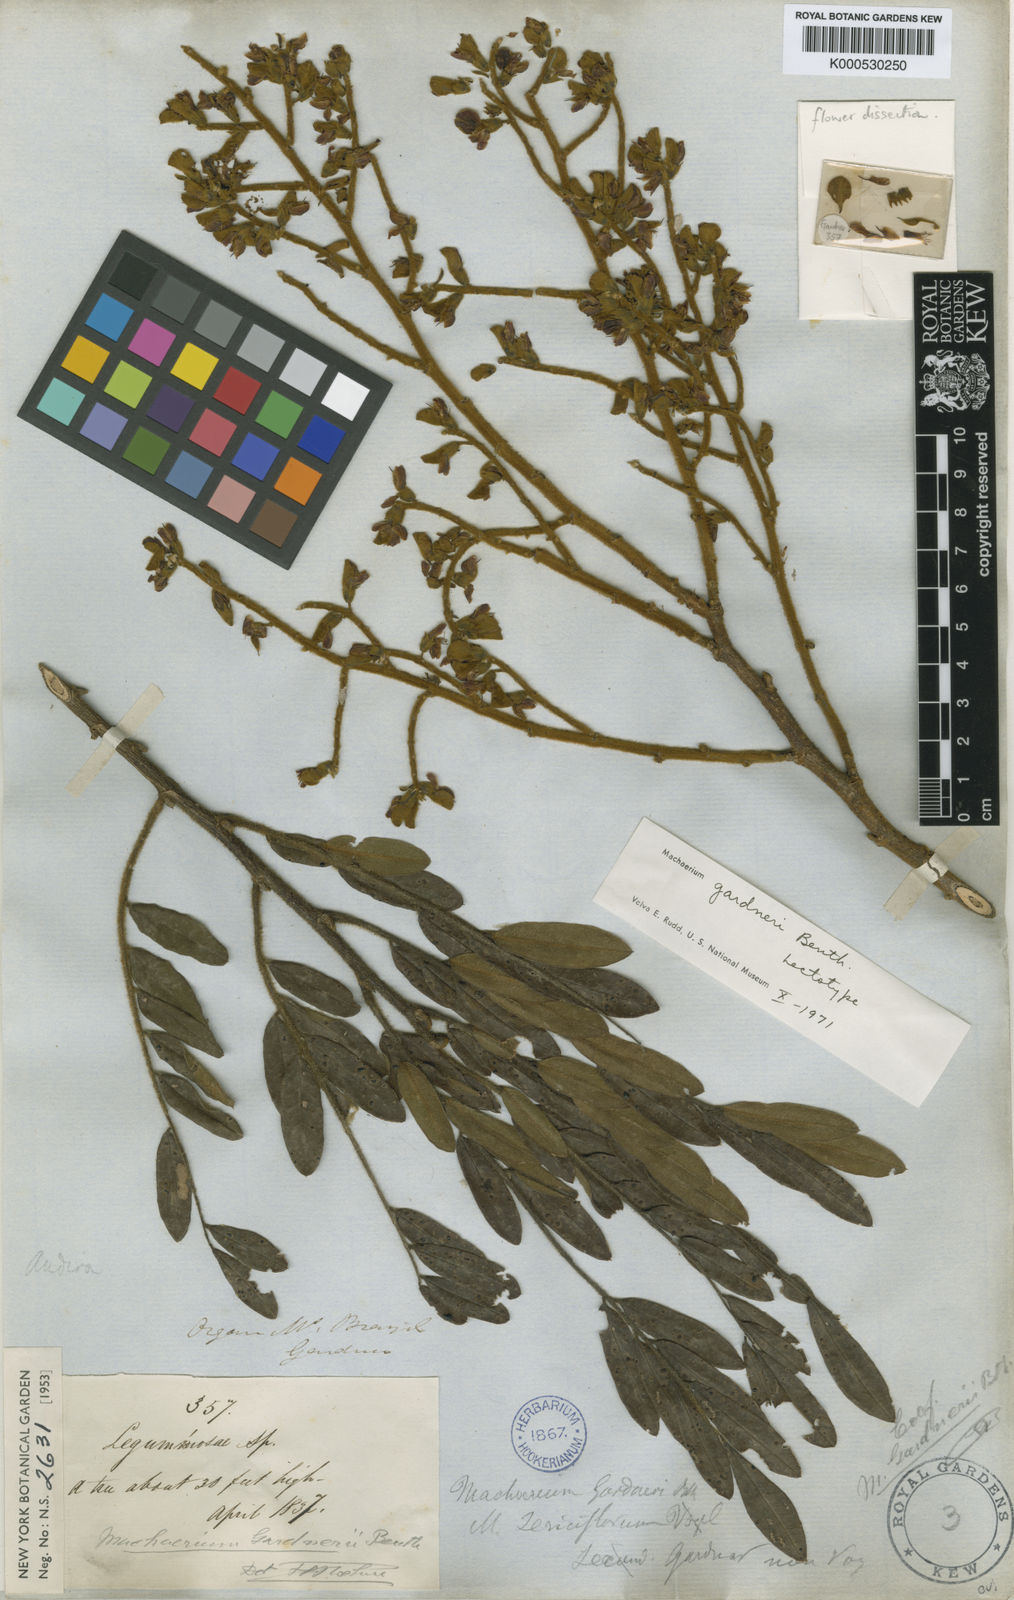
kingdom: Plantae
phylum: Tracheophyta
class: Magnoliopsida
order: Fabales
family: Fabaceae
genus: Machaerium
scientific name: Machaerium nyctitans
